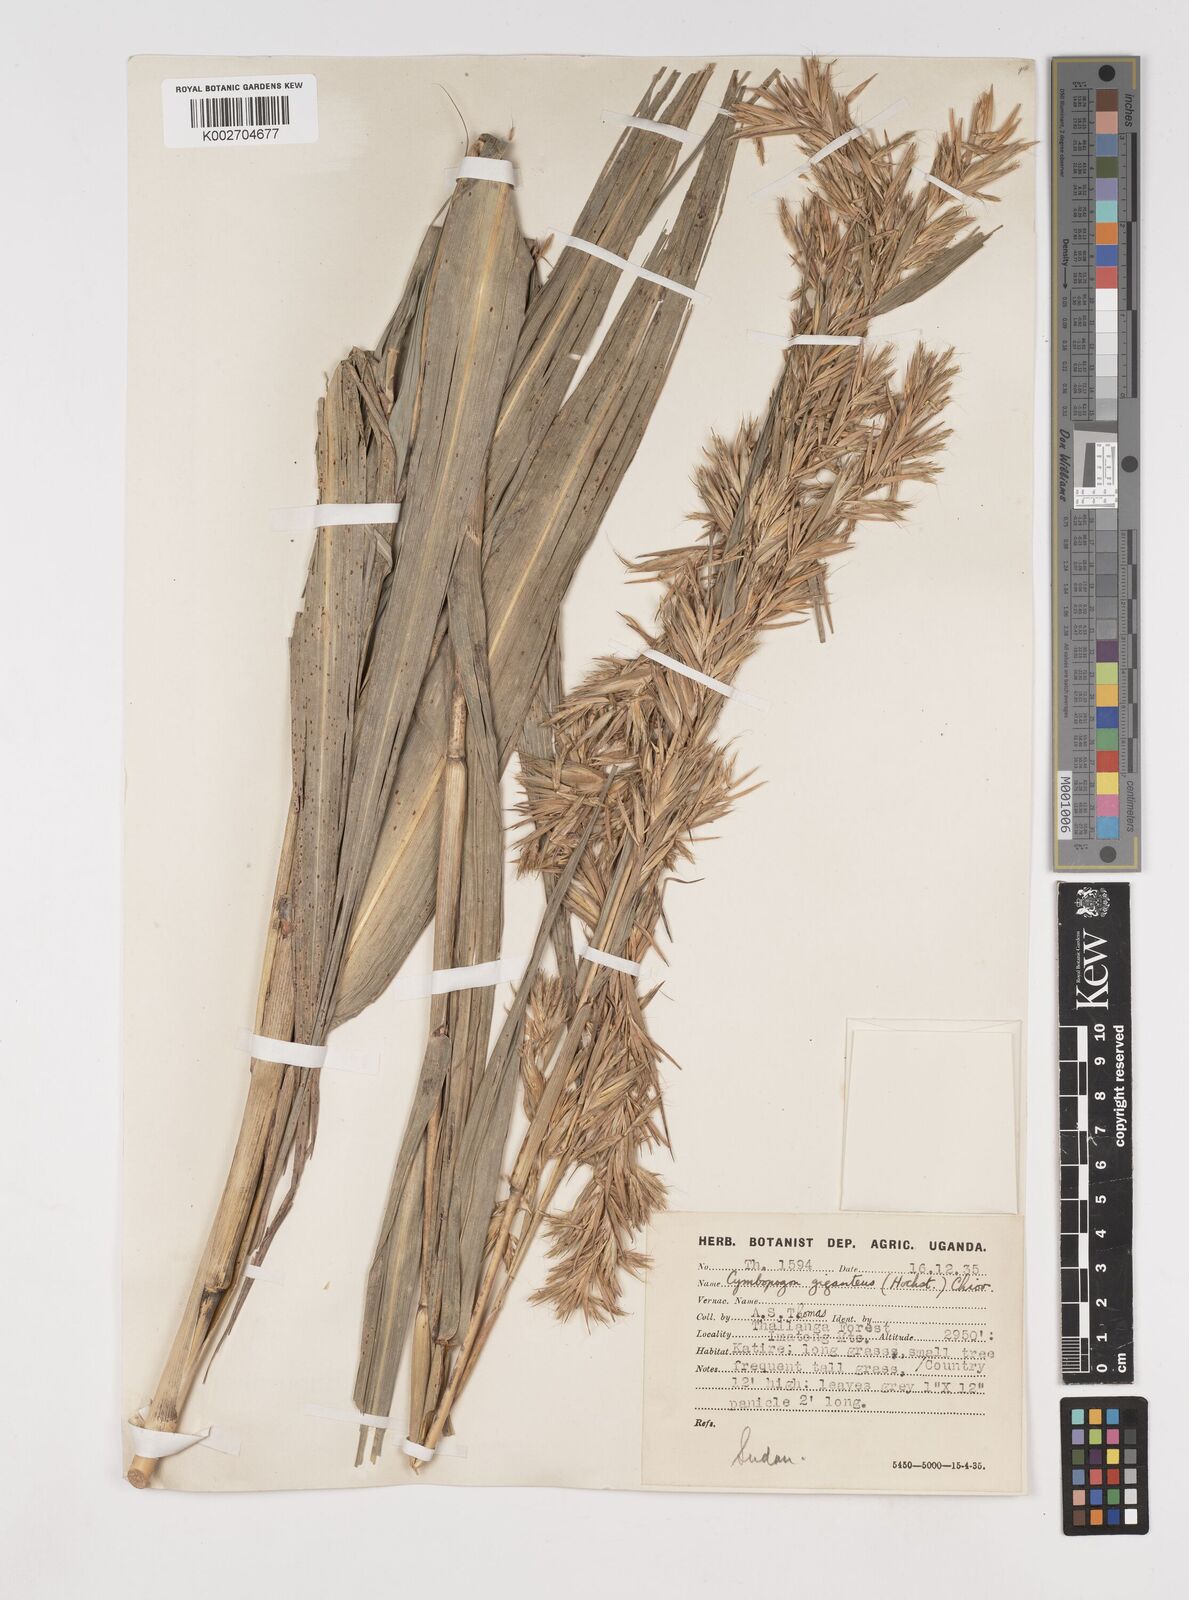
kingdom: Plantae
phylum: Tracheophyta
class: Liliopsida
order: Poales
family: Poaceae
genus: Cymbopogon
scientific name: Cymbopogon giganteus
